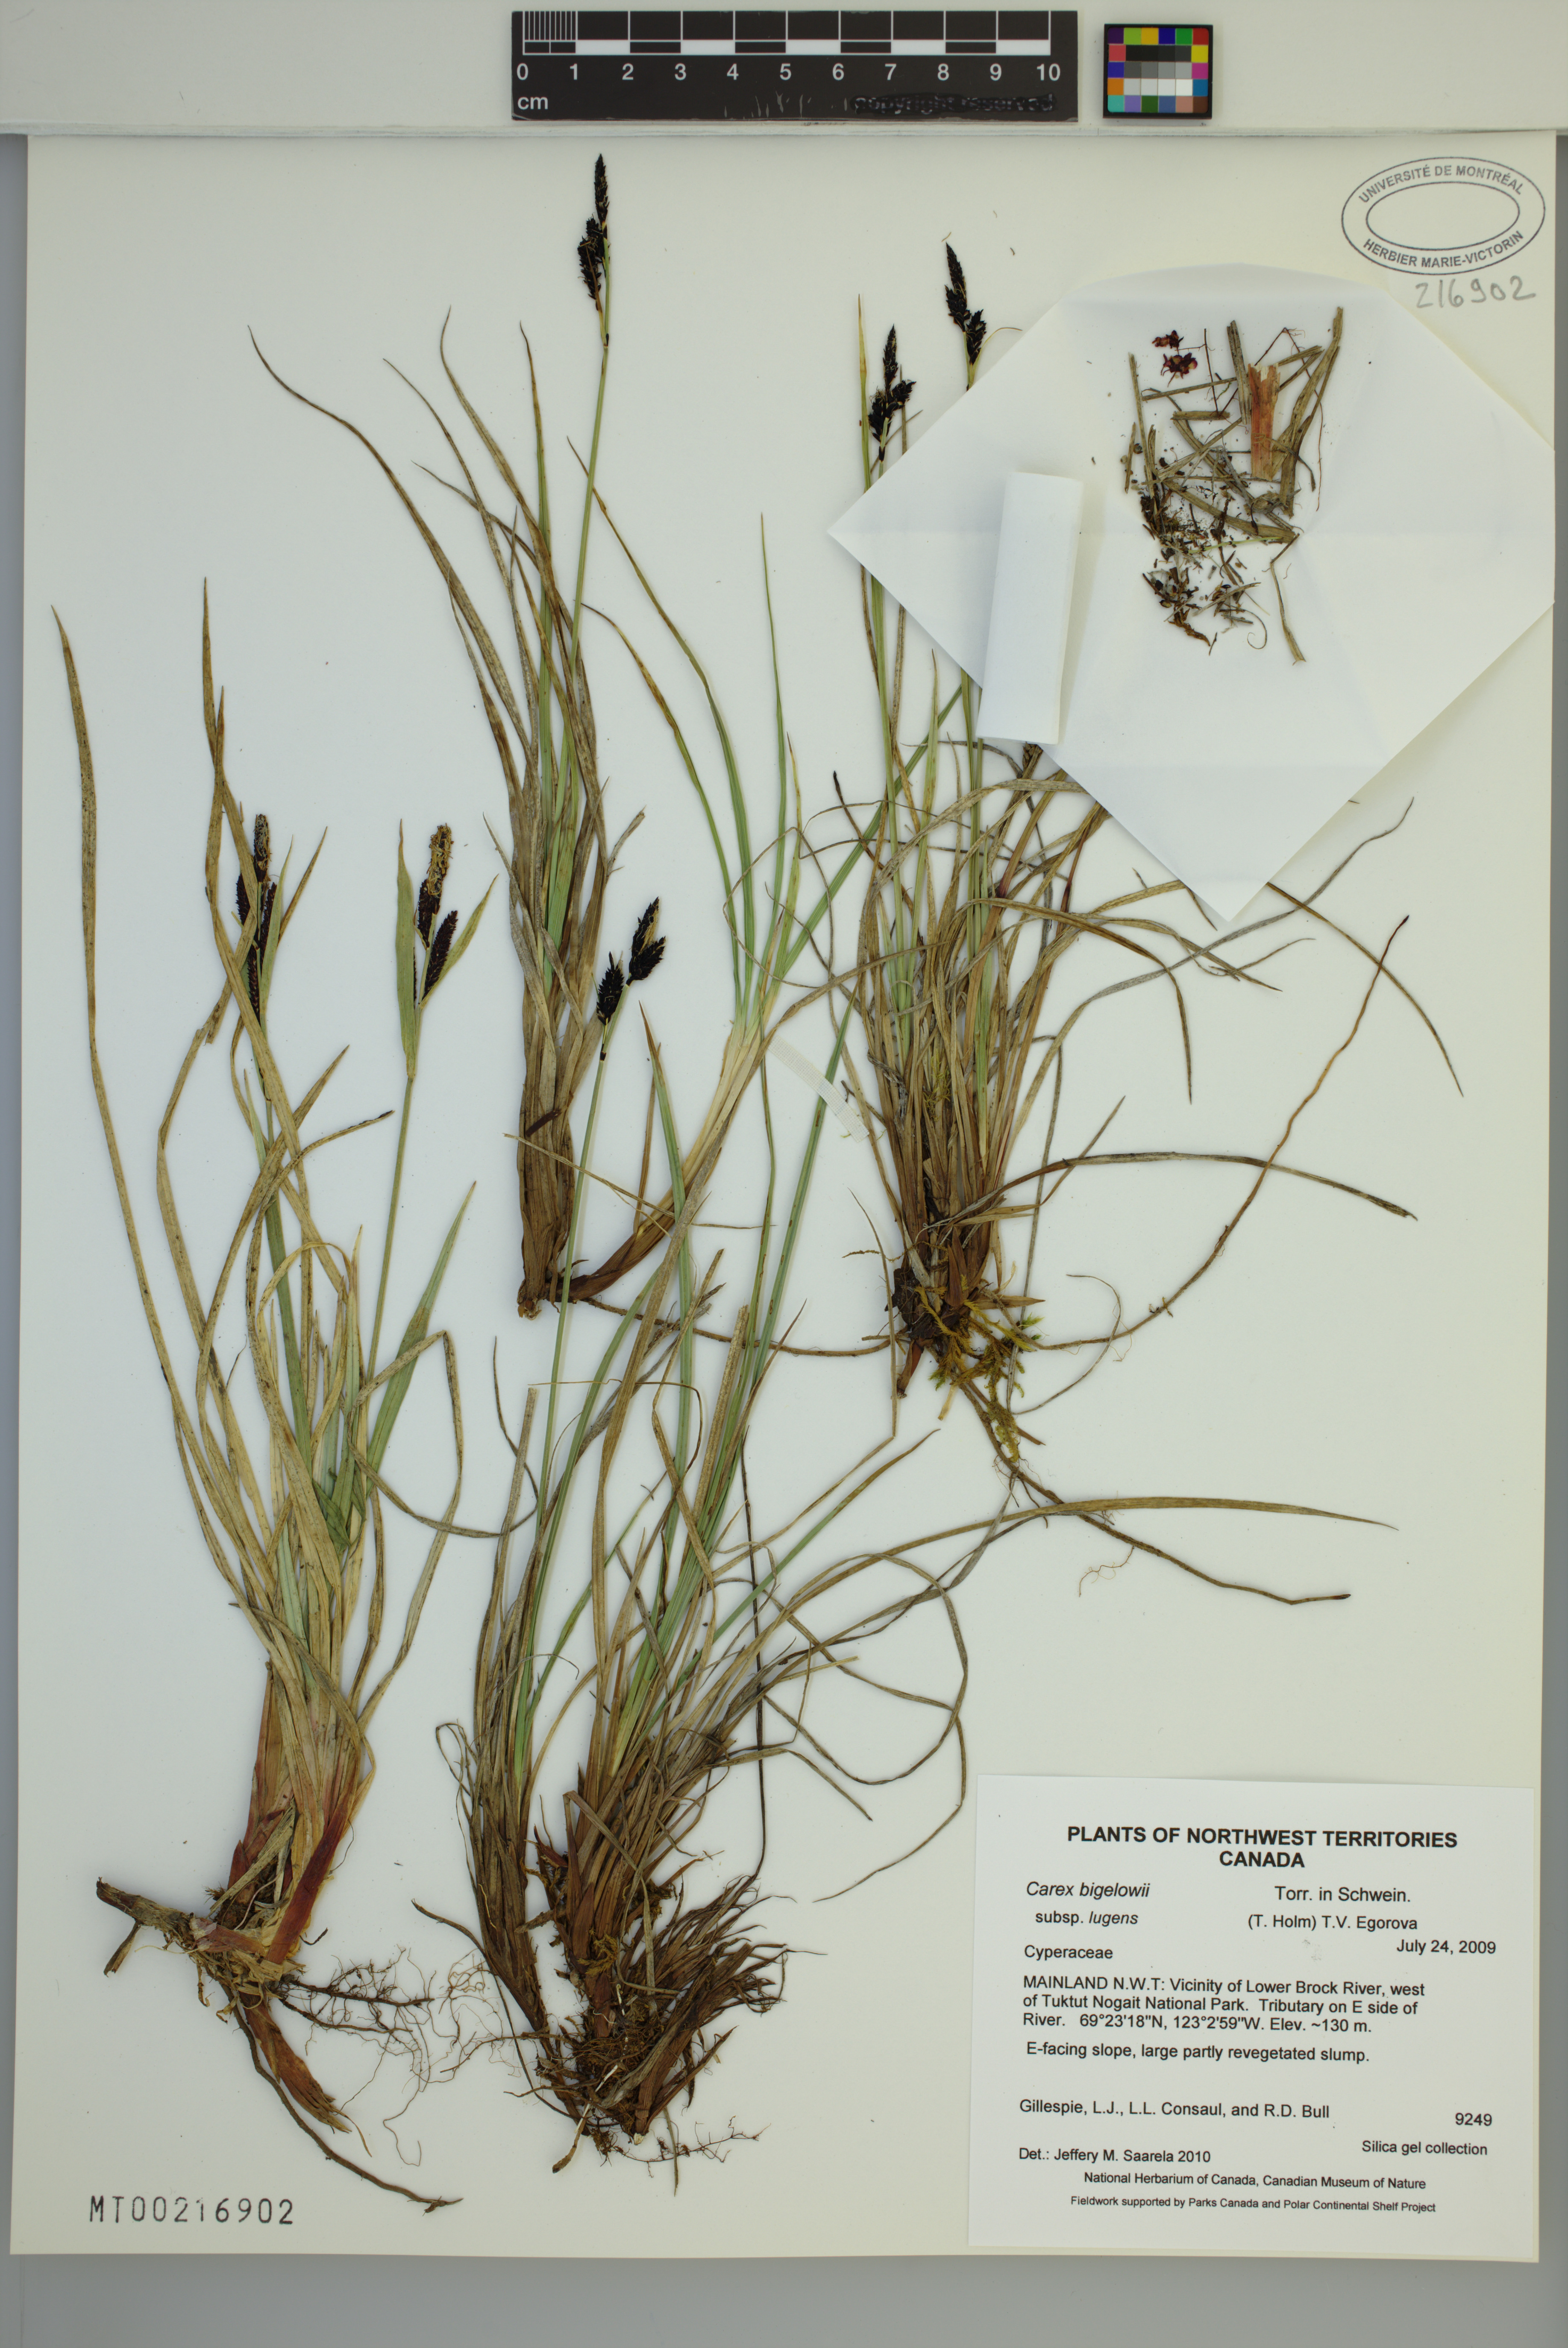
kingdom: Plantae
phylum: Tracheophyta
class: Liliopsida
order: Poales
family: Cyperaceae
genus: Carex
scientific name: Carex bigelowii
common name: Stiff sedge
